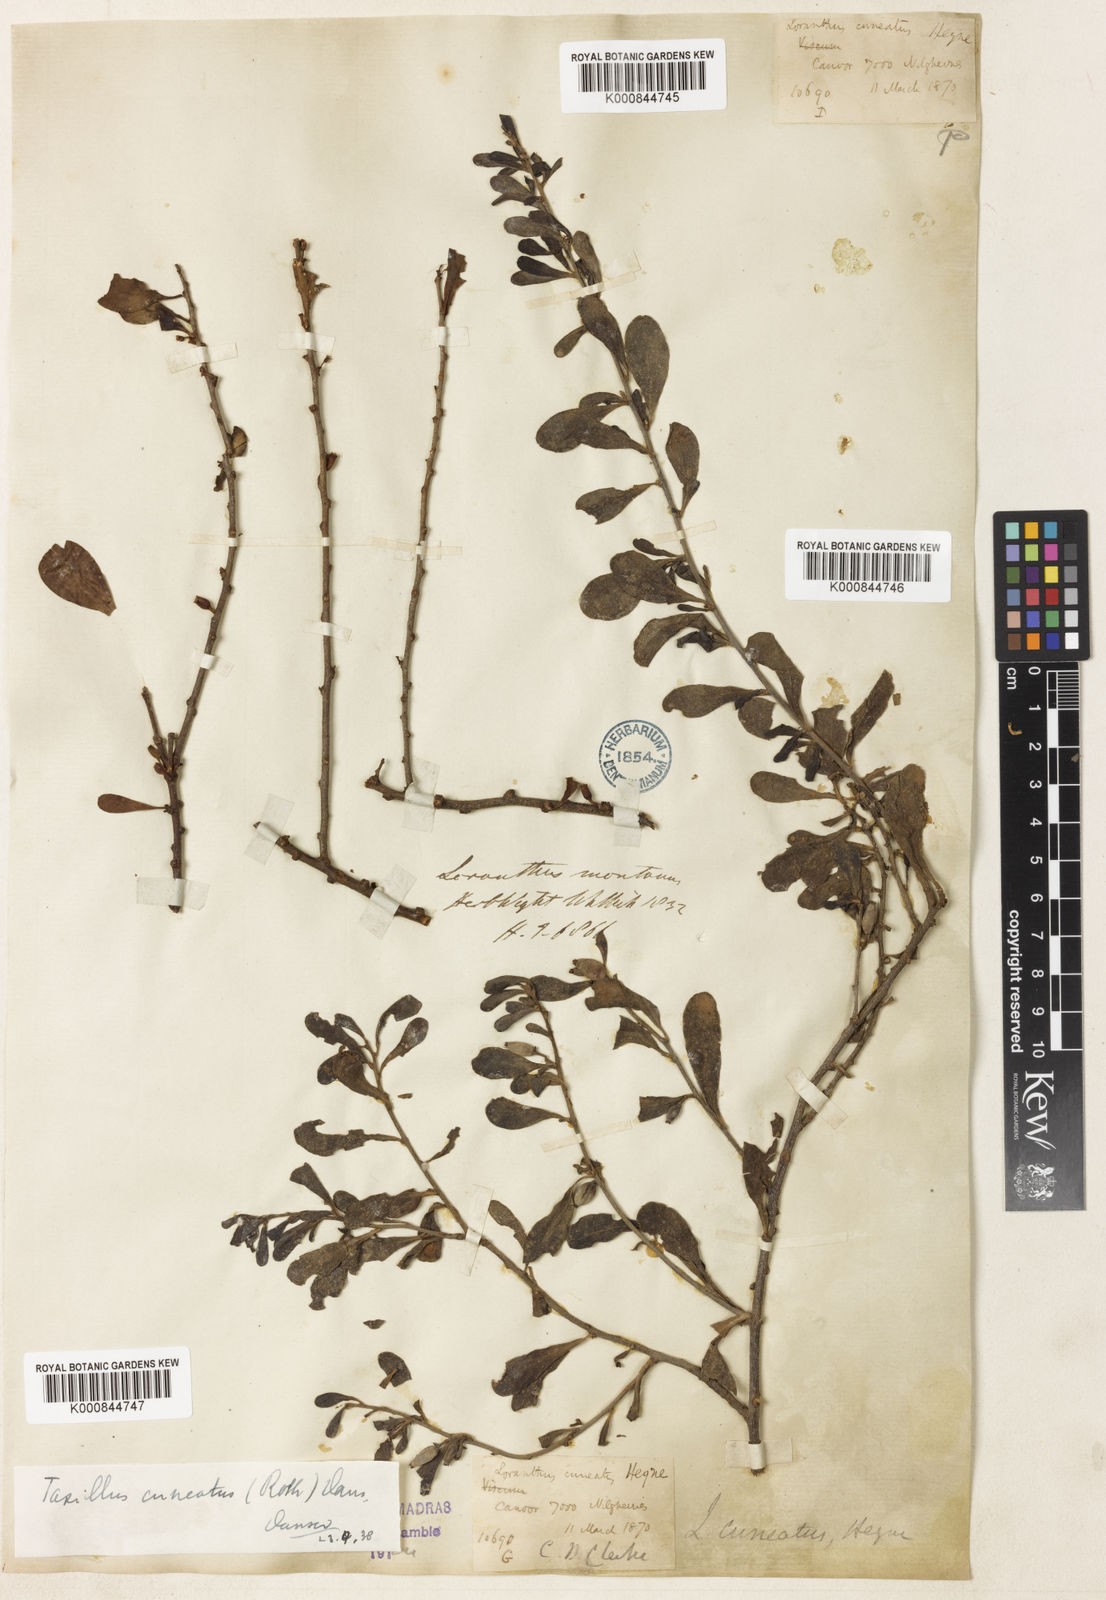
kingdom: Plantae
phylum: Tracheophyta
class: Magnoliopsida
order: Santalales
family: Loranthaceae
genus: Taxillus
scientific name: Taxillus cuneatus
